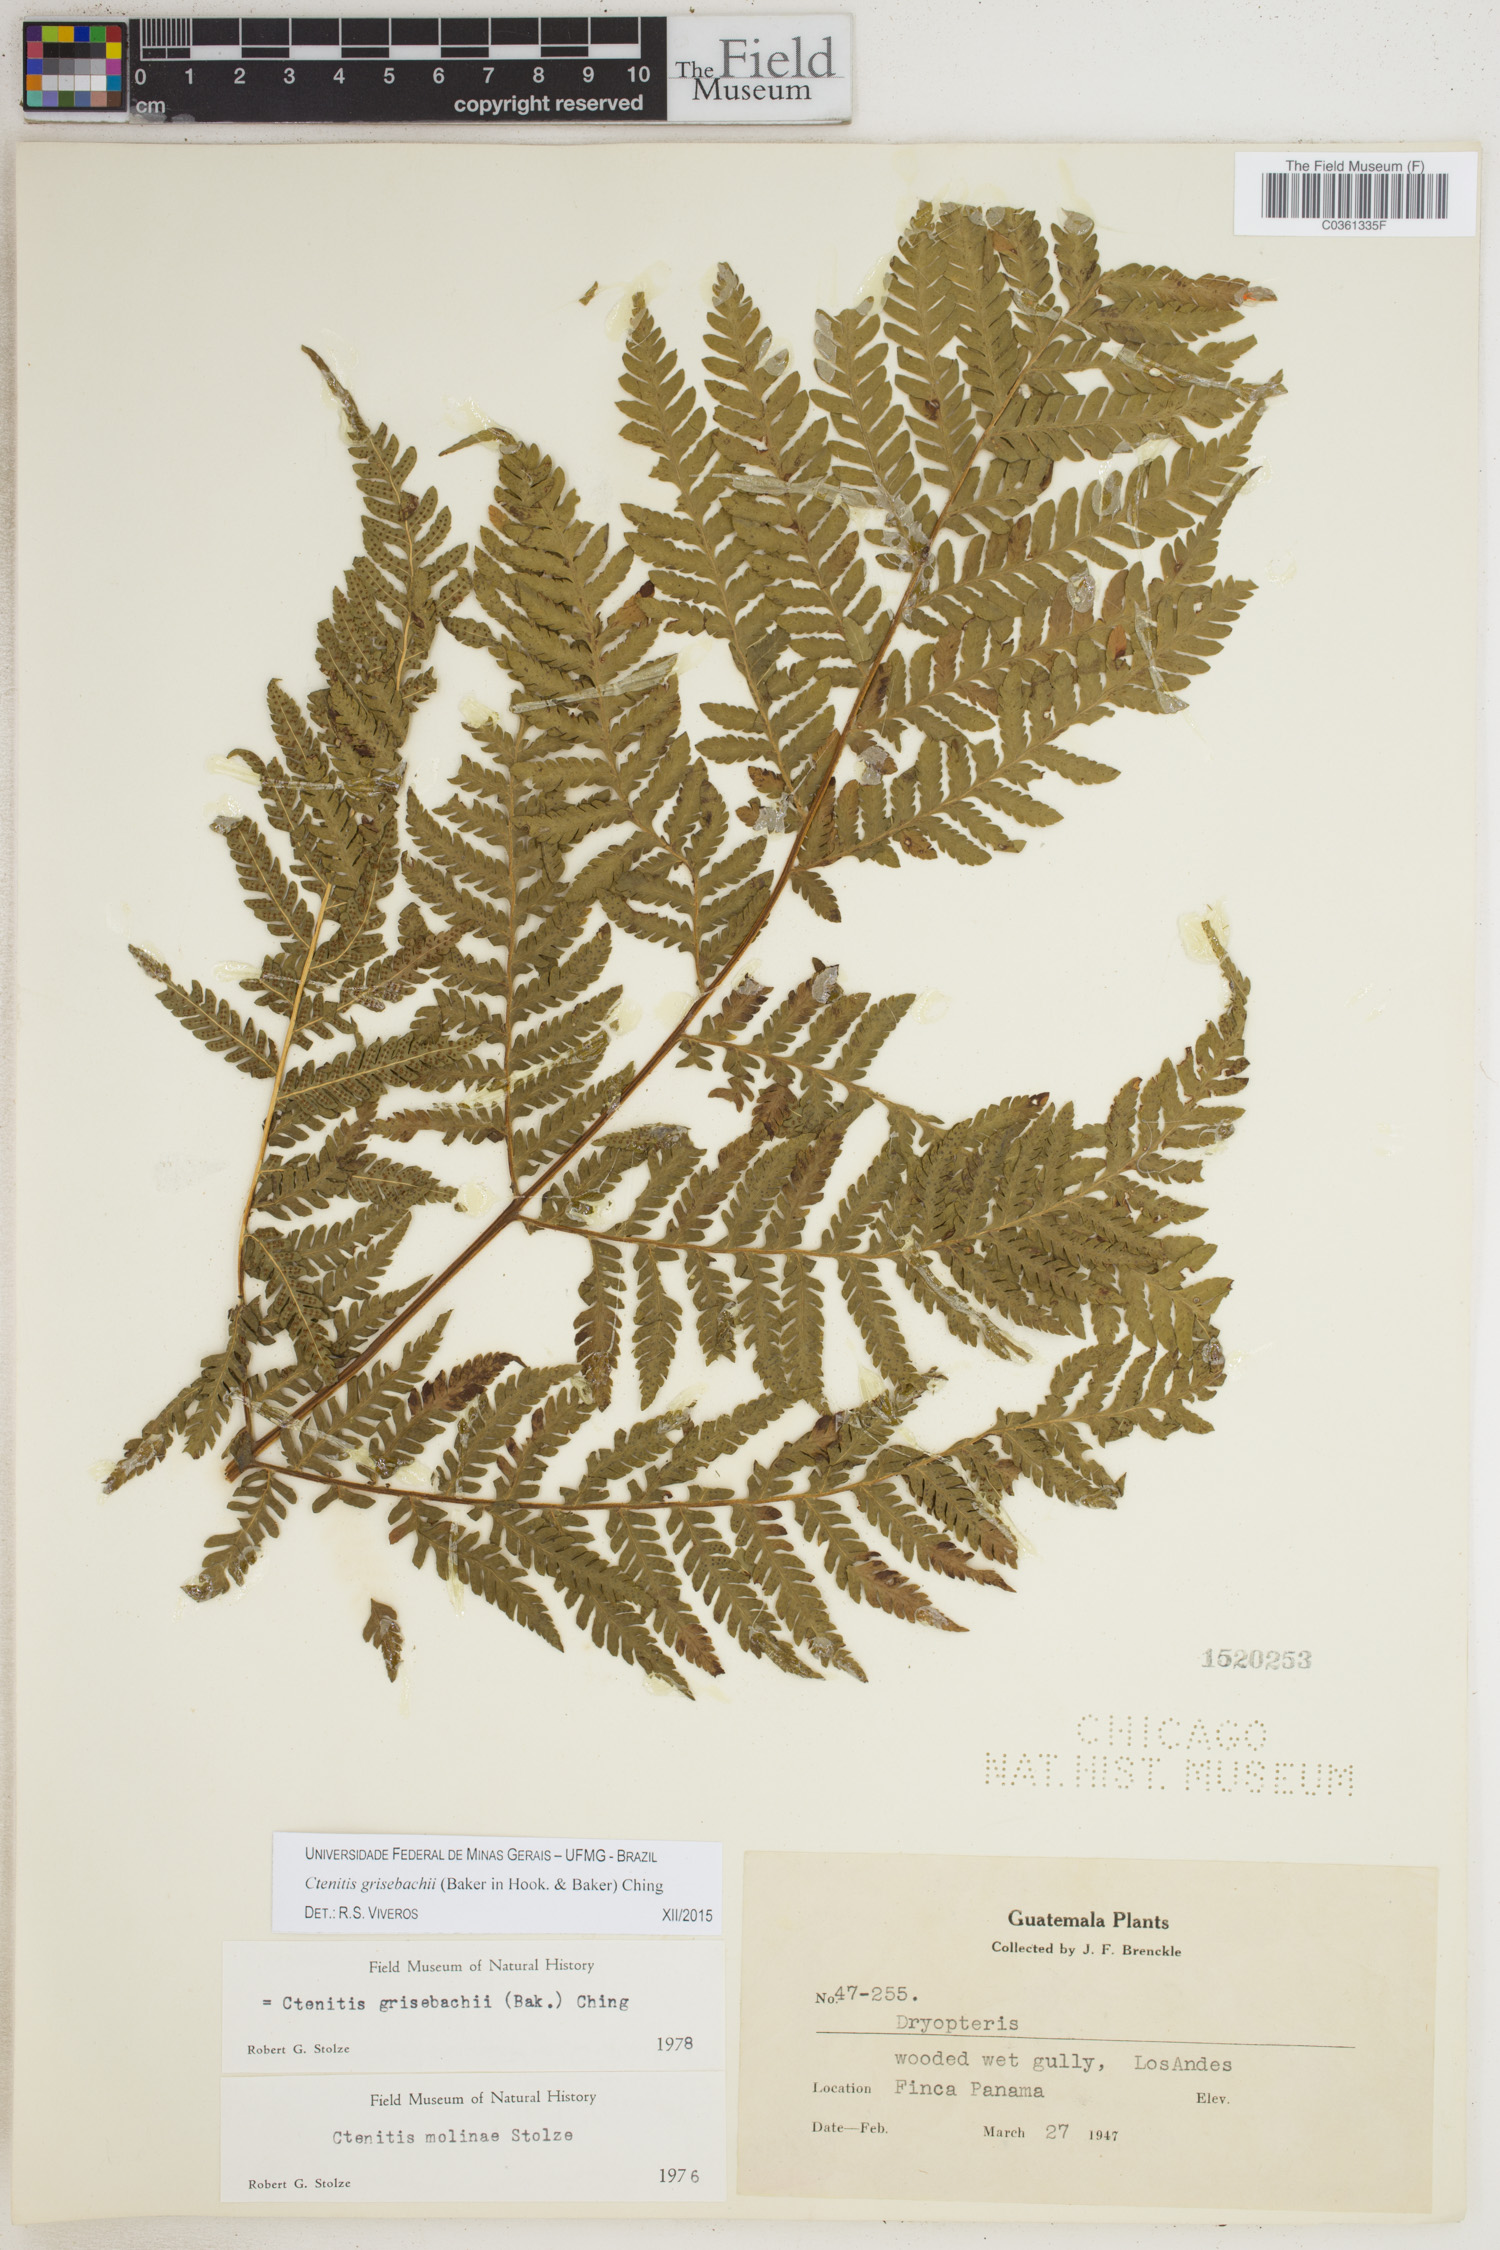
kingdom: Plantae
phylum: Tracheophyta
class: Polypodiopsida
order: Polypodiales
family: Dryopteridaceae
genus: Ctenitis
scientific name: Ctenitis grisebachii
